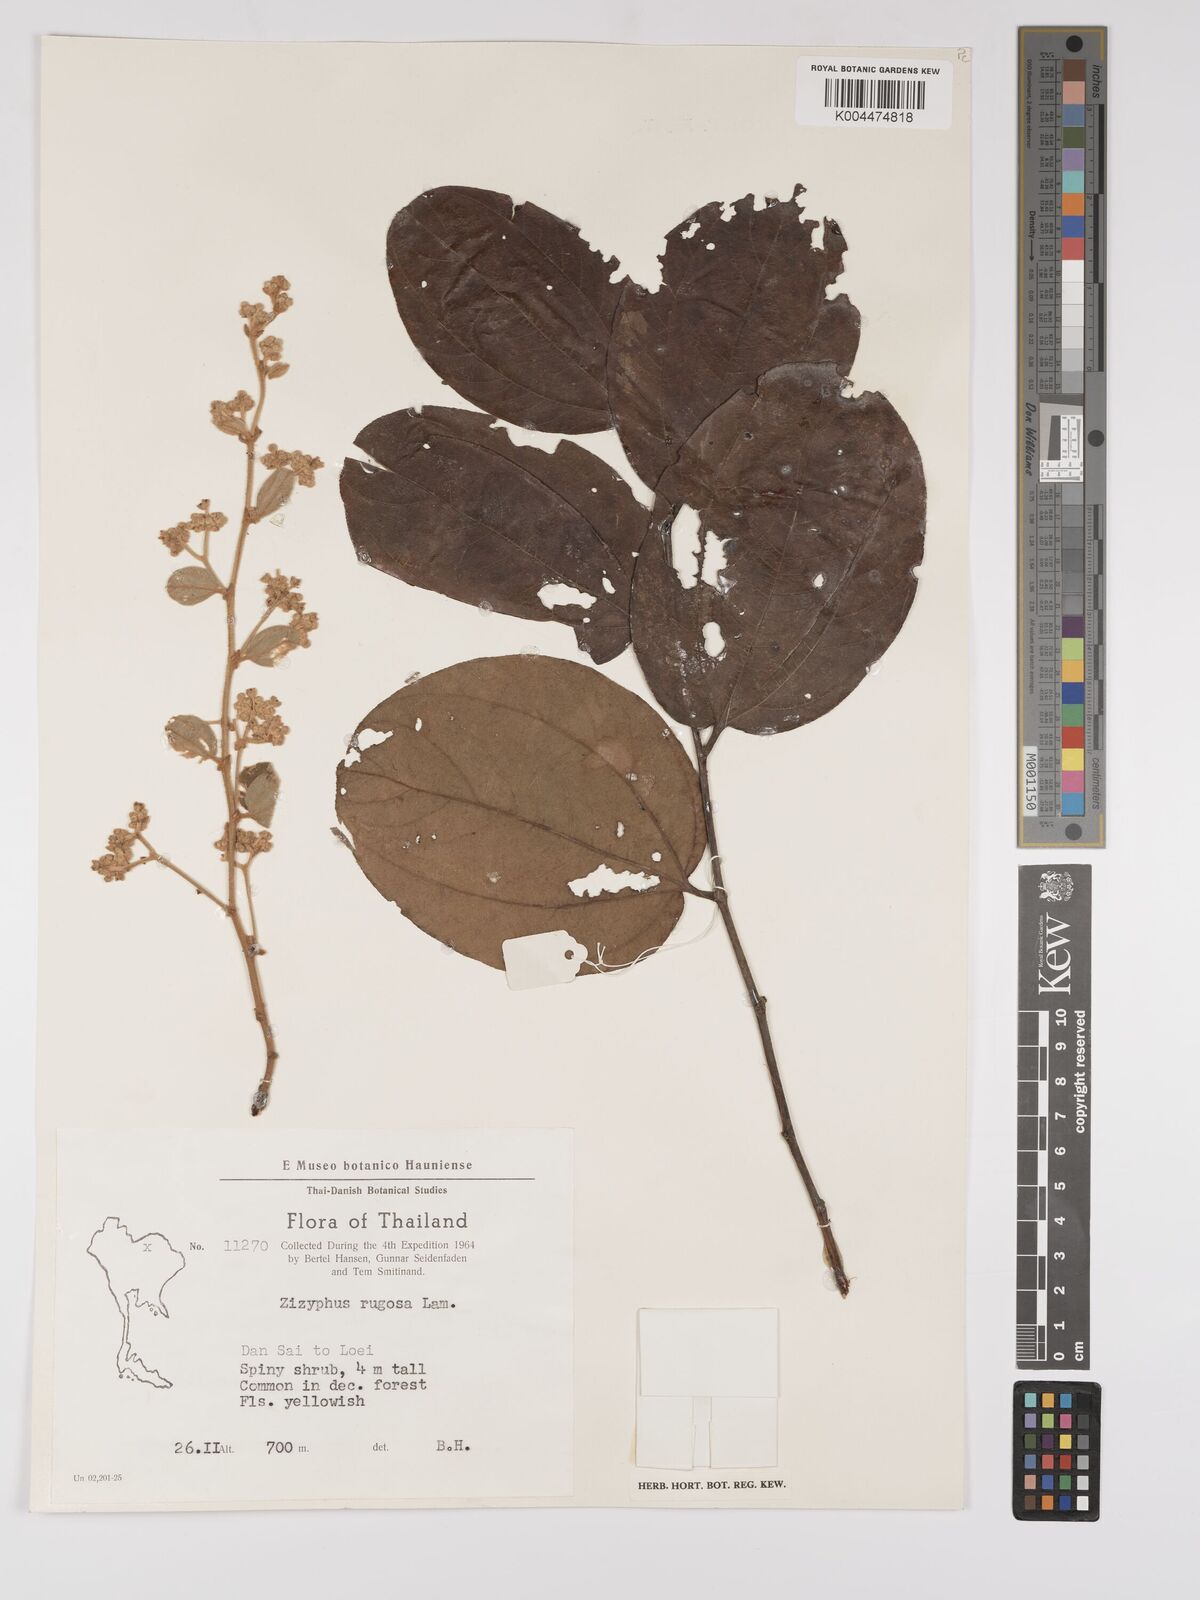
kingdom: Plantae
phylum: Tracheophyta
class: Magnoliopsida
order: Rosales
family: Rhamnaceae
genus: Ziziphus
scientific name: Ziziphus rugosa
